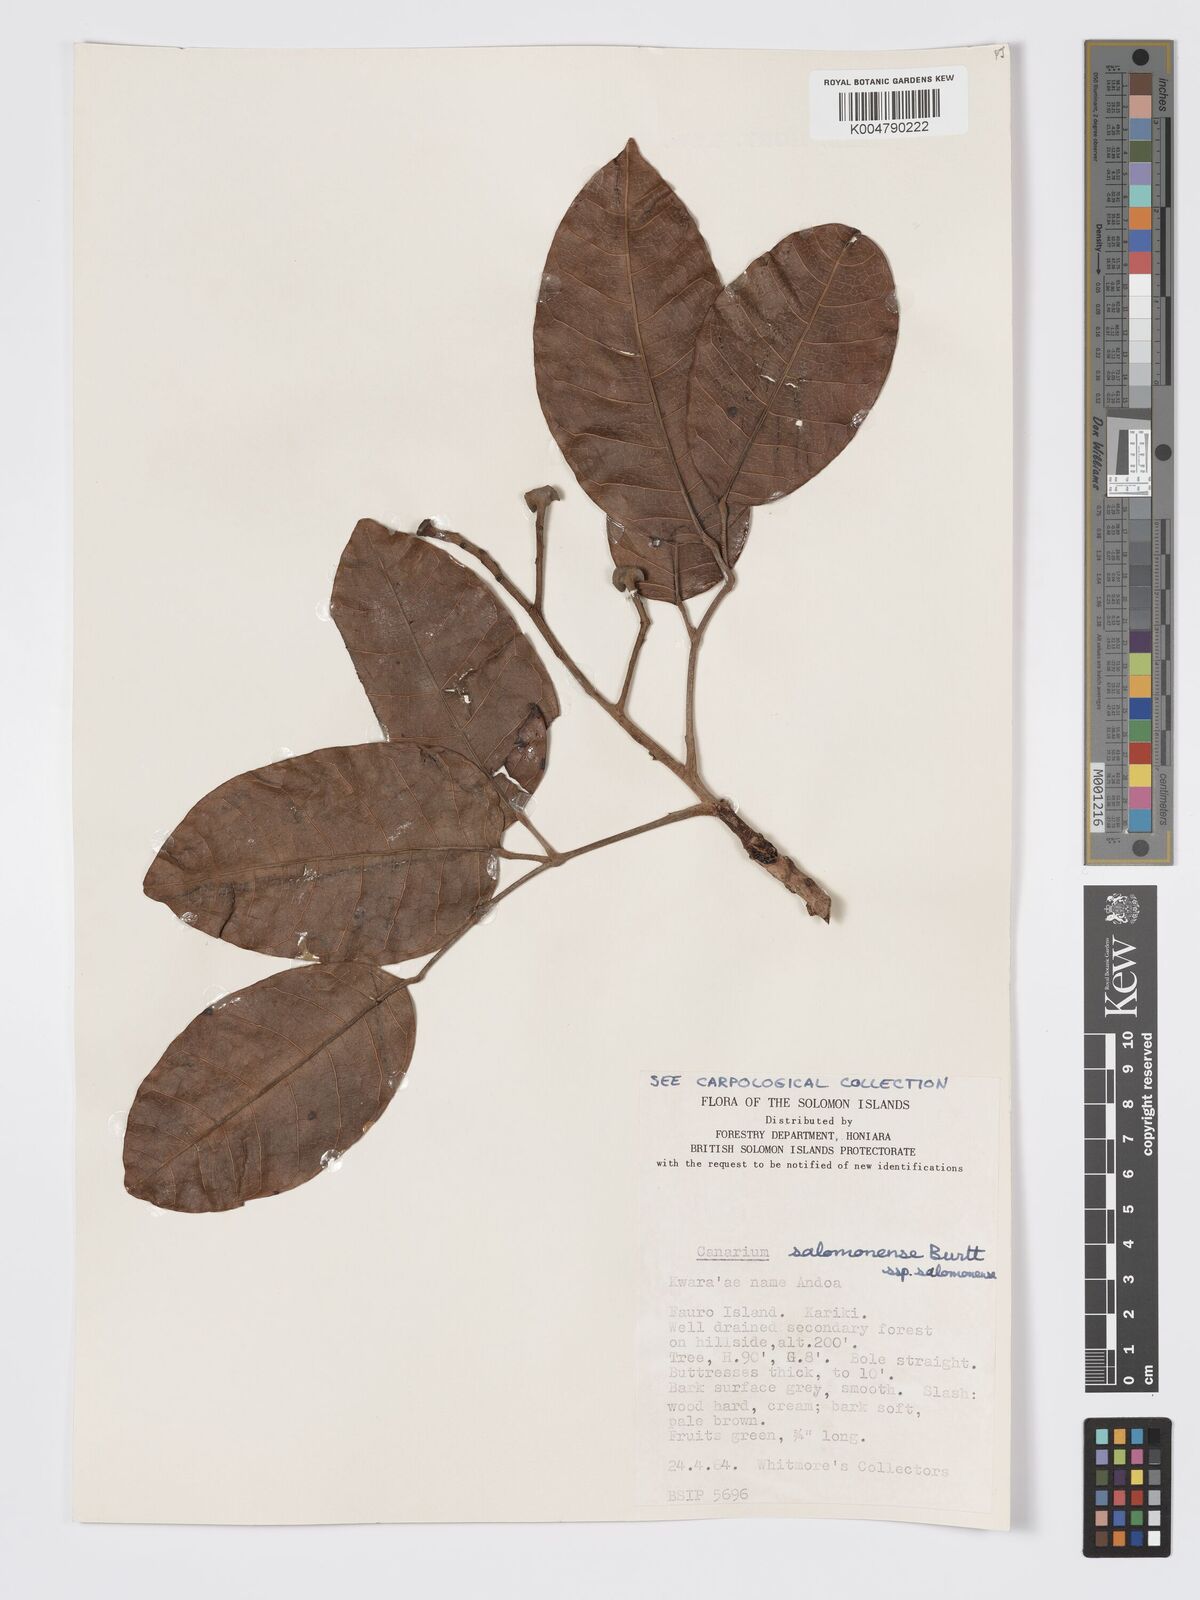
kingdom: Plantae
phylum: Tracheophyta
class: Magnoliopsida
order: Sapindales
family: Burseraceae
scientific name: Burseraceae
